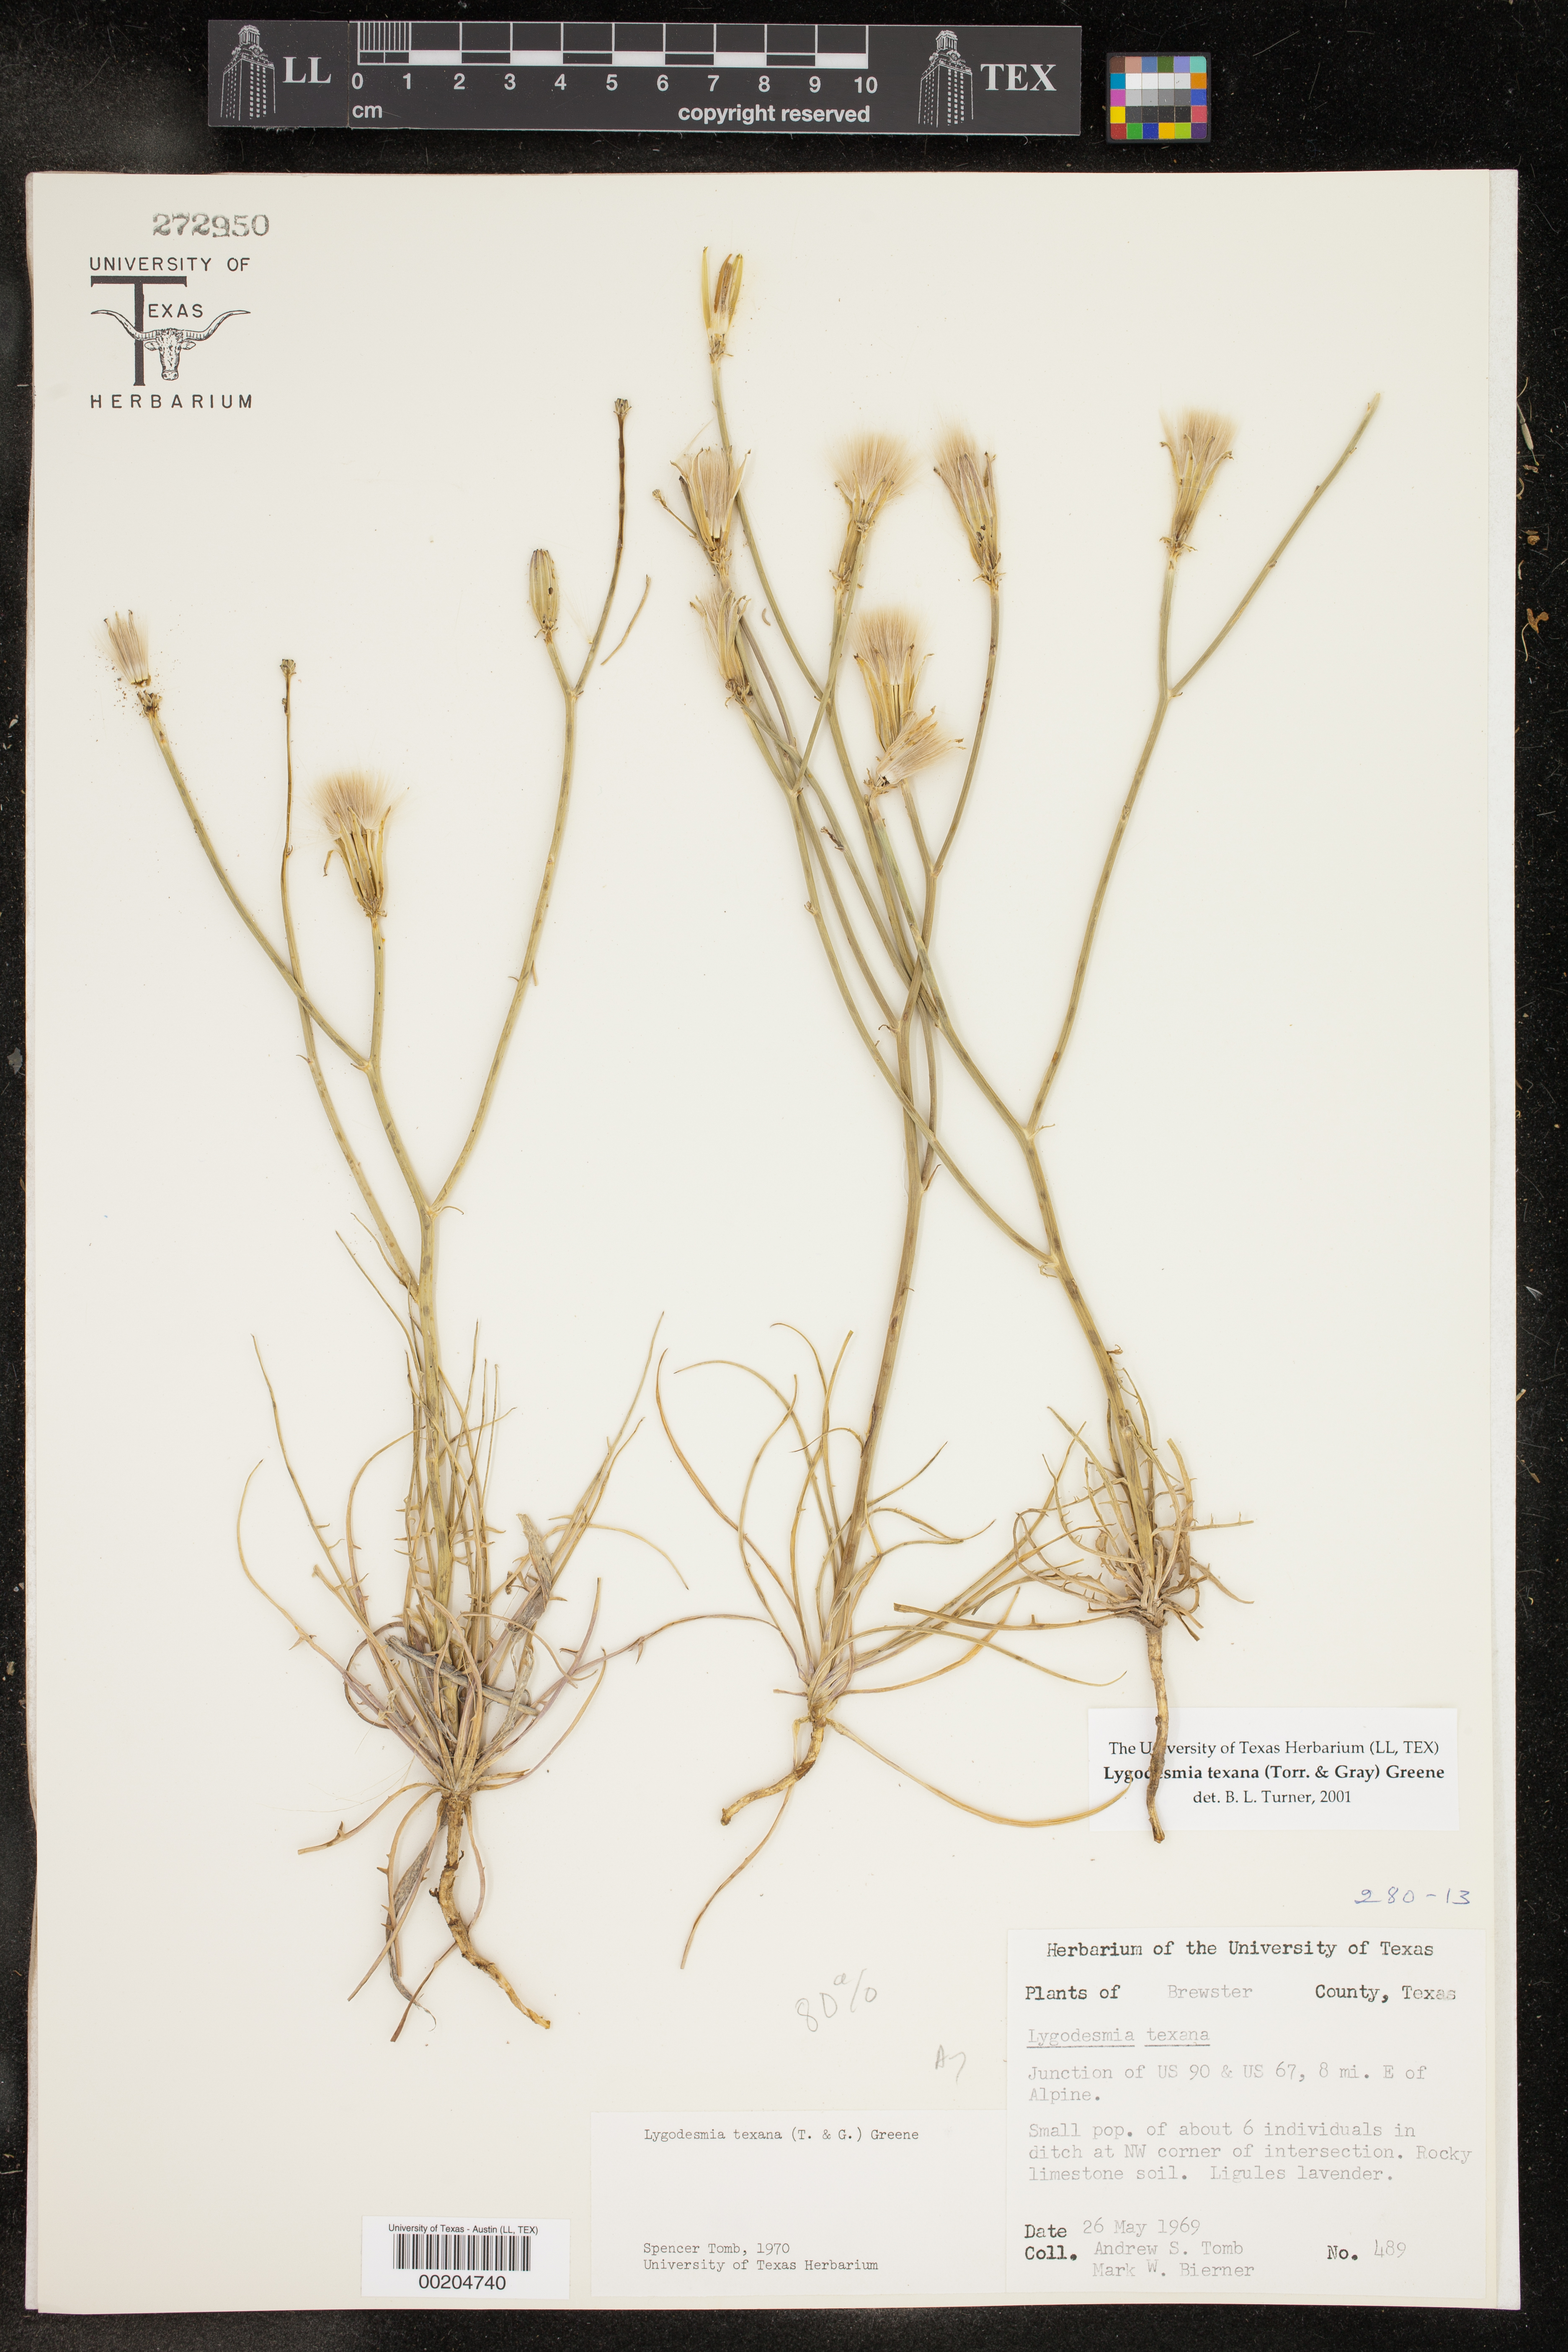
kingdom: Plantae
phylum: Tracheophyta
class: Magnoliopsida
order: Asterales
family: Asteraceae
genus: Lygodesmia
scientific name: Lygodesmia texana
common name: Texas skeleton-plant
